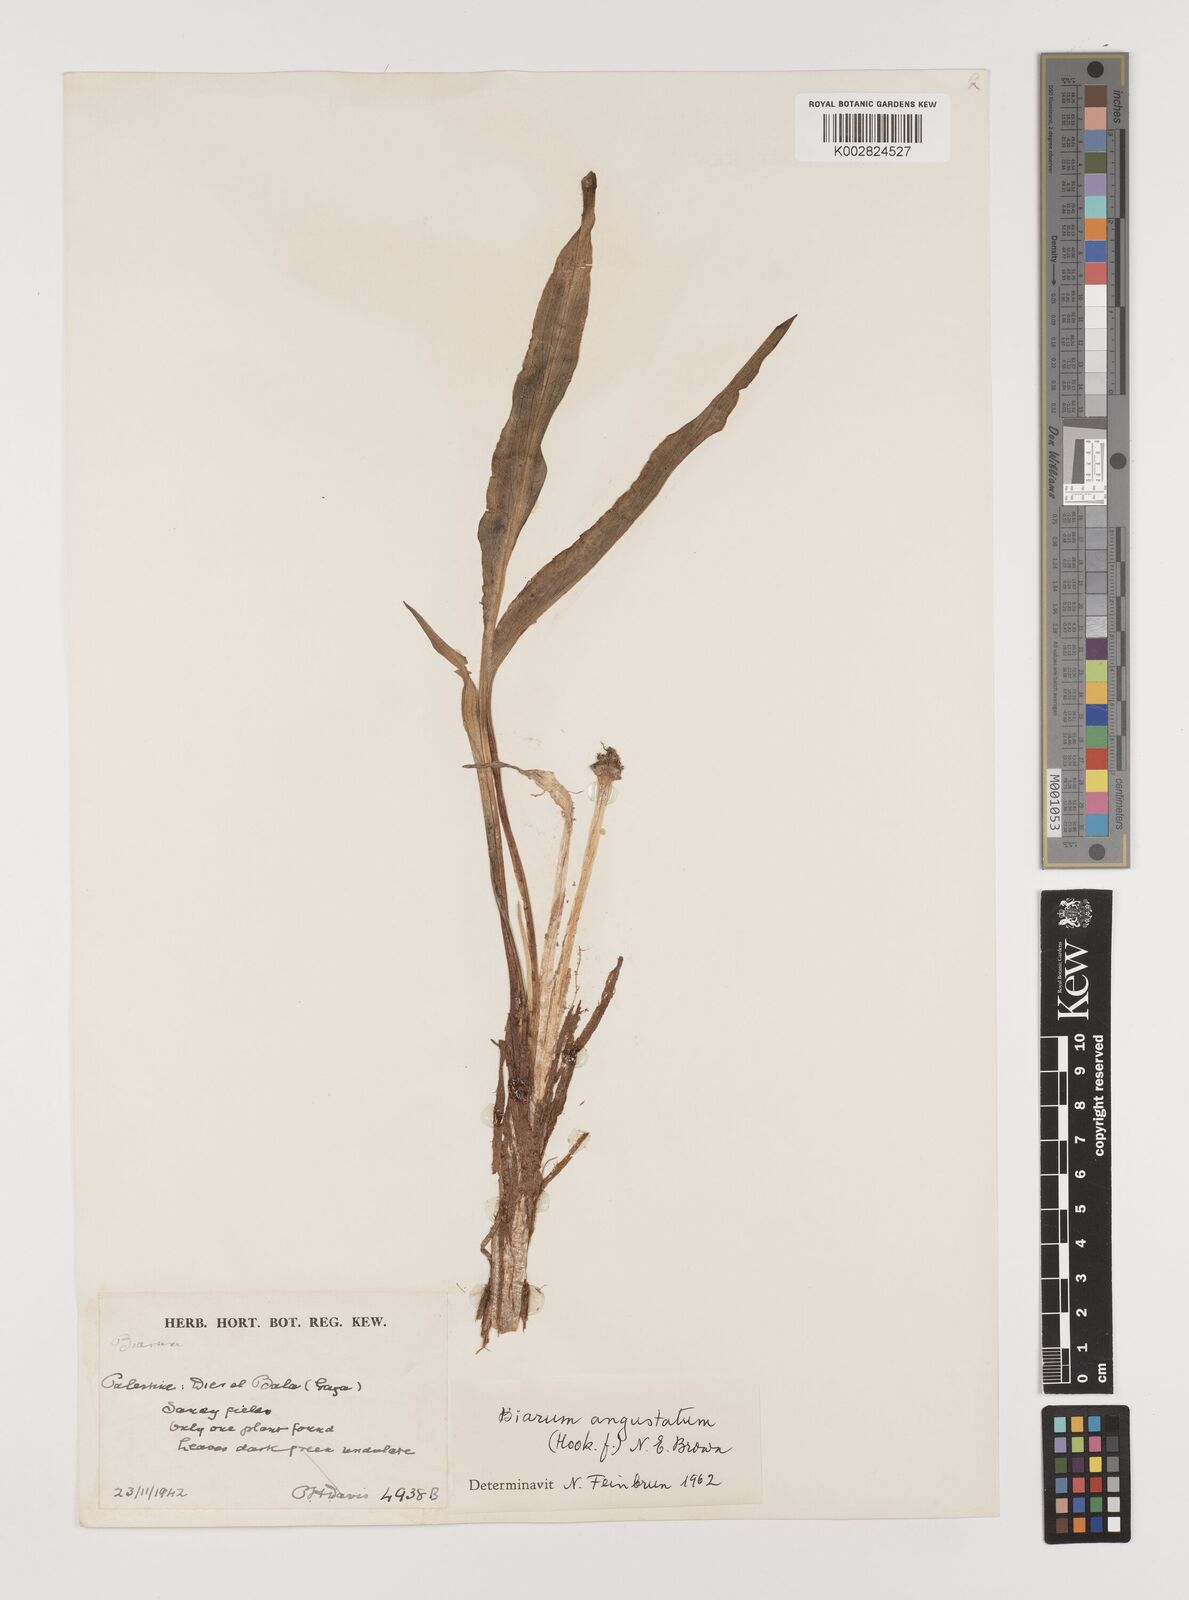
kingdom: Plantae
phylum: Tracheophyta
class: Liliopsida
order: Alismatales
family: Araceae
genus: Biarum
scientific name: Biarum angustatum
